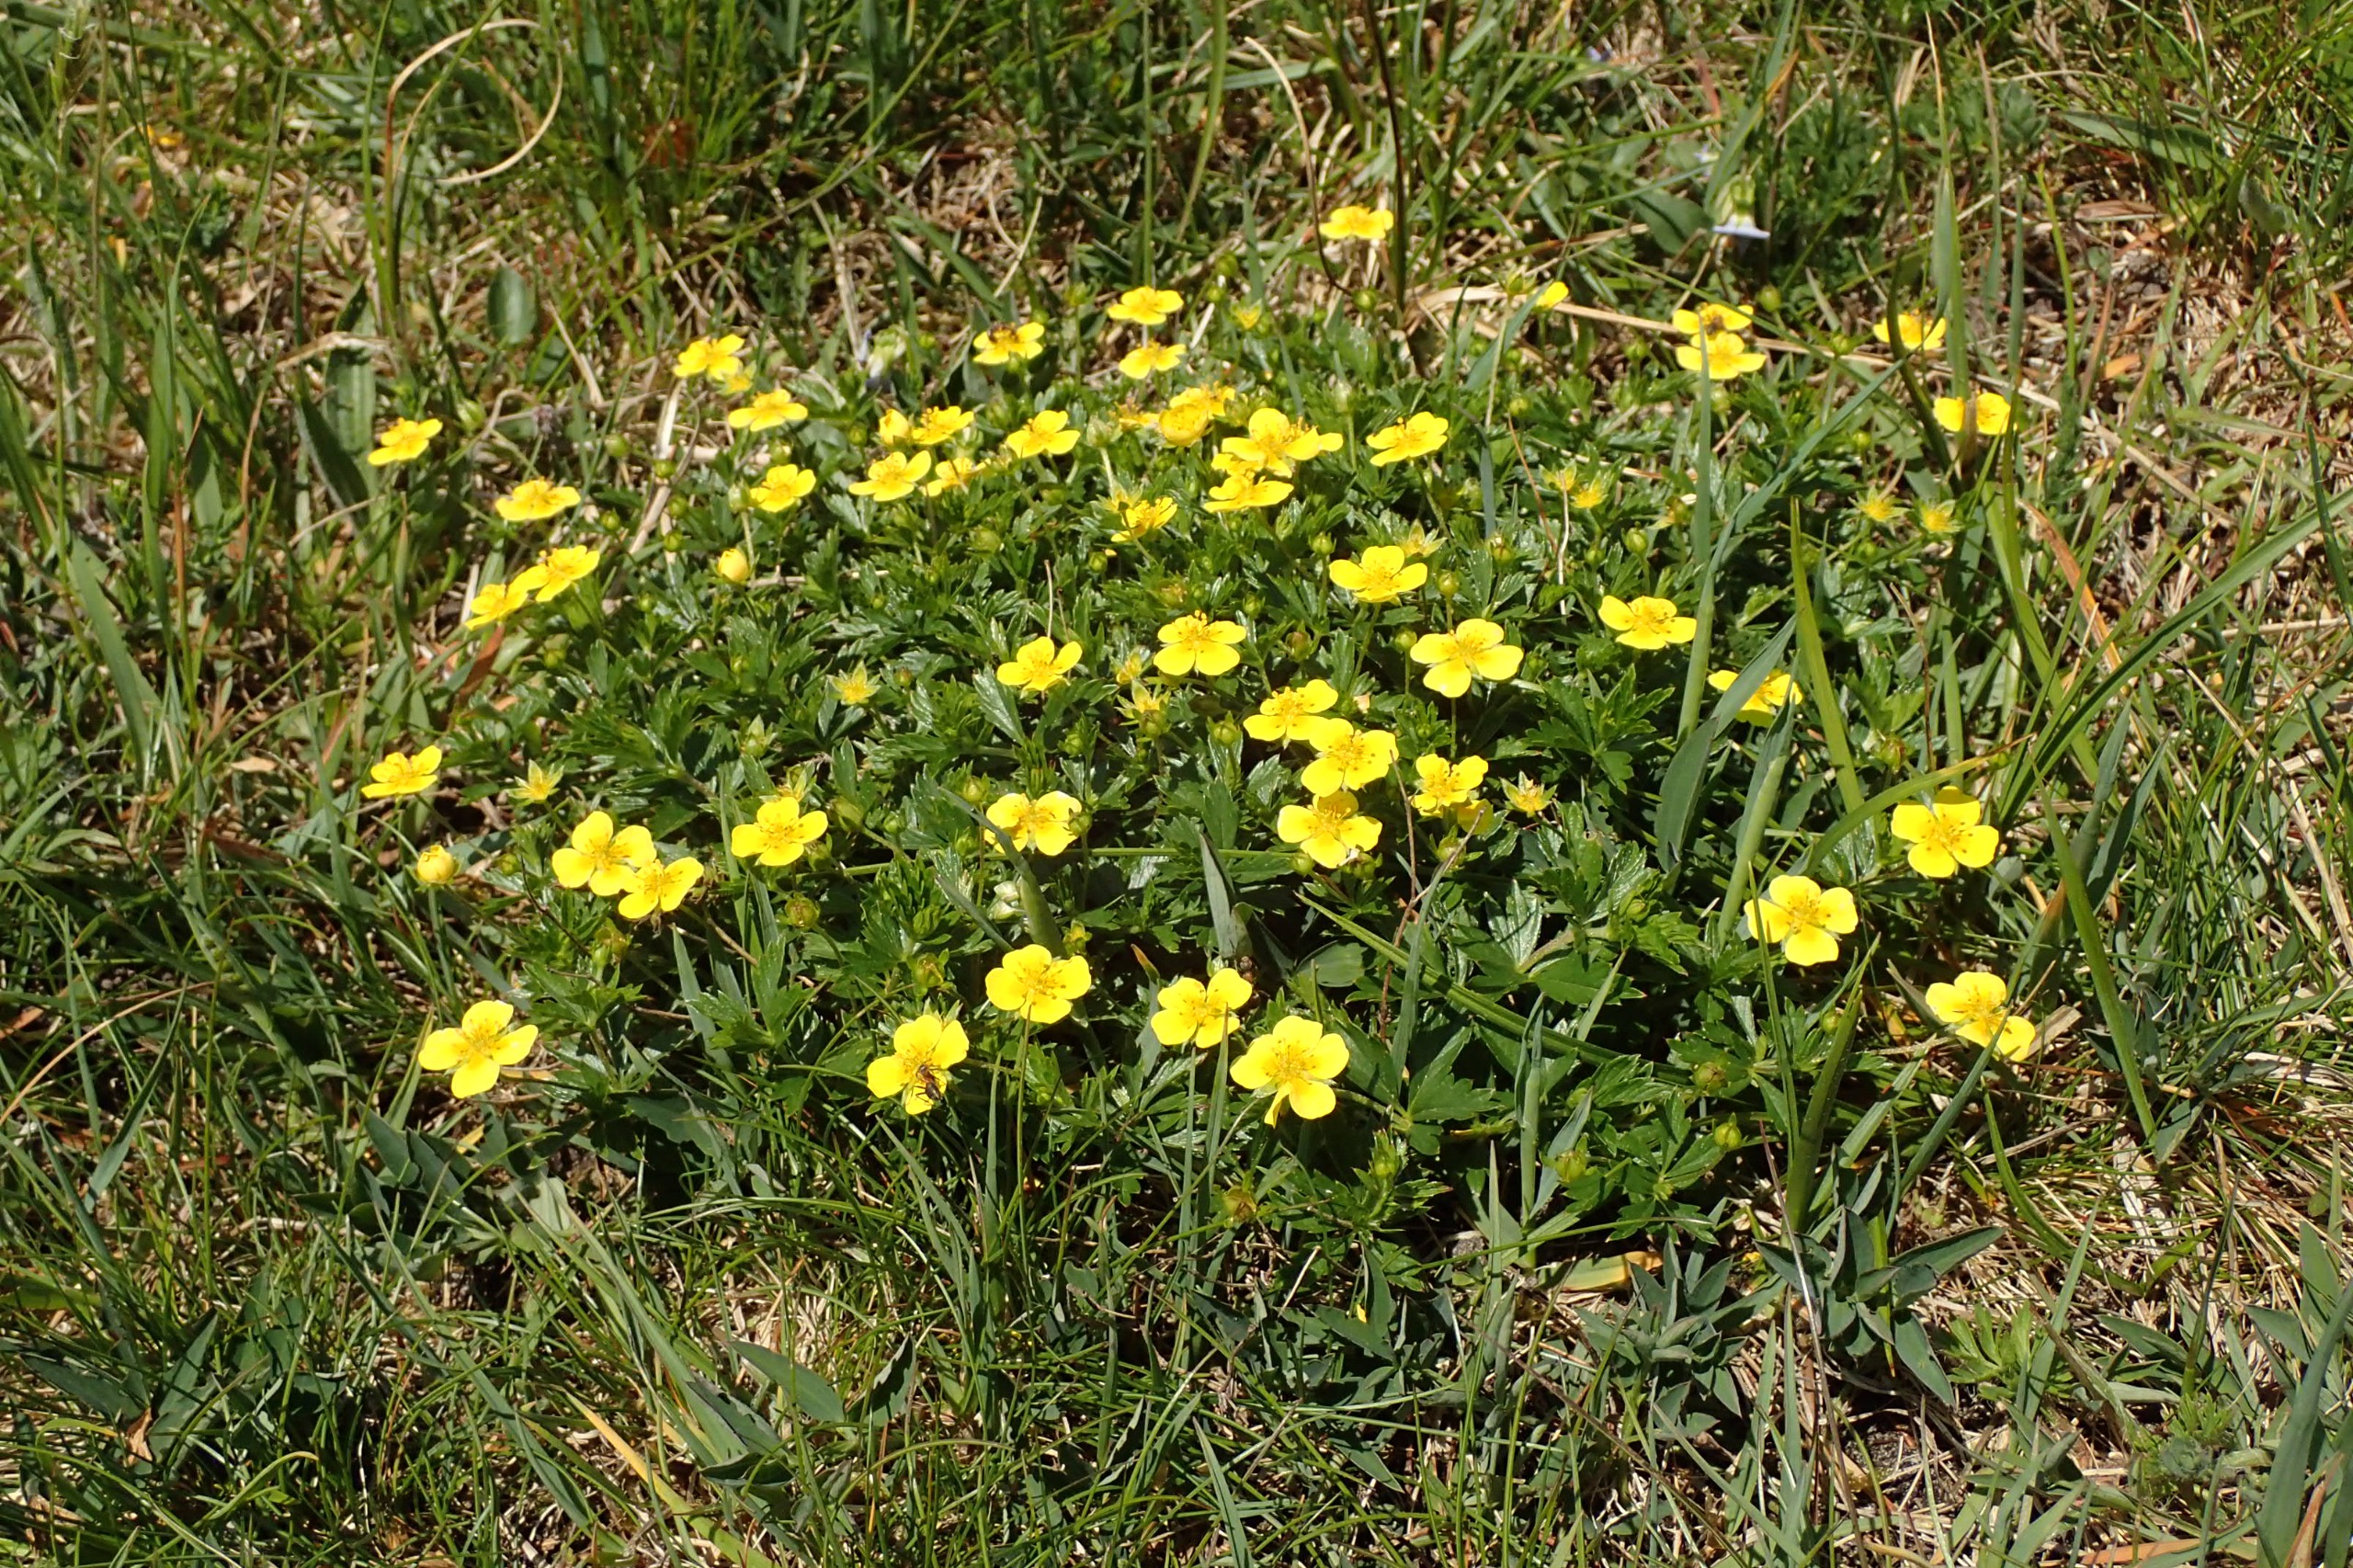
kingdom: Plantae
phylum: Tracheophyta
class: Magnoliopsida
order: Rosales
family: Rosaceae
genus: Potentilla
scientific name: Potentilla erecta
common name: Tormentil
